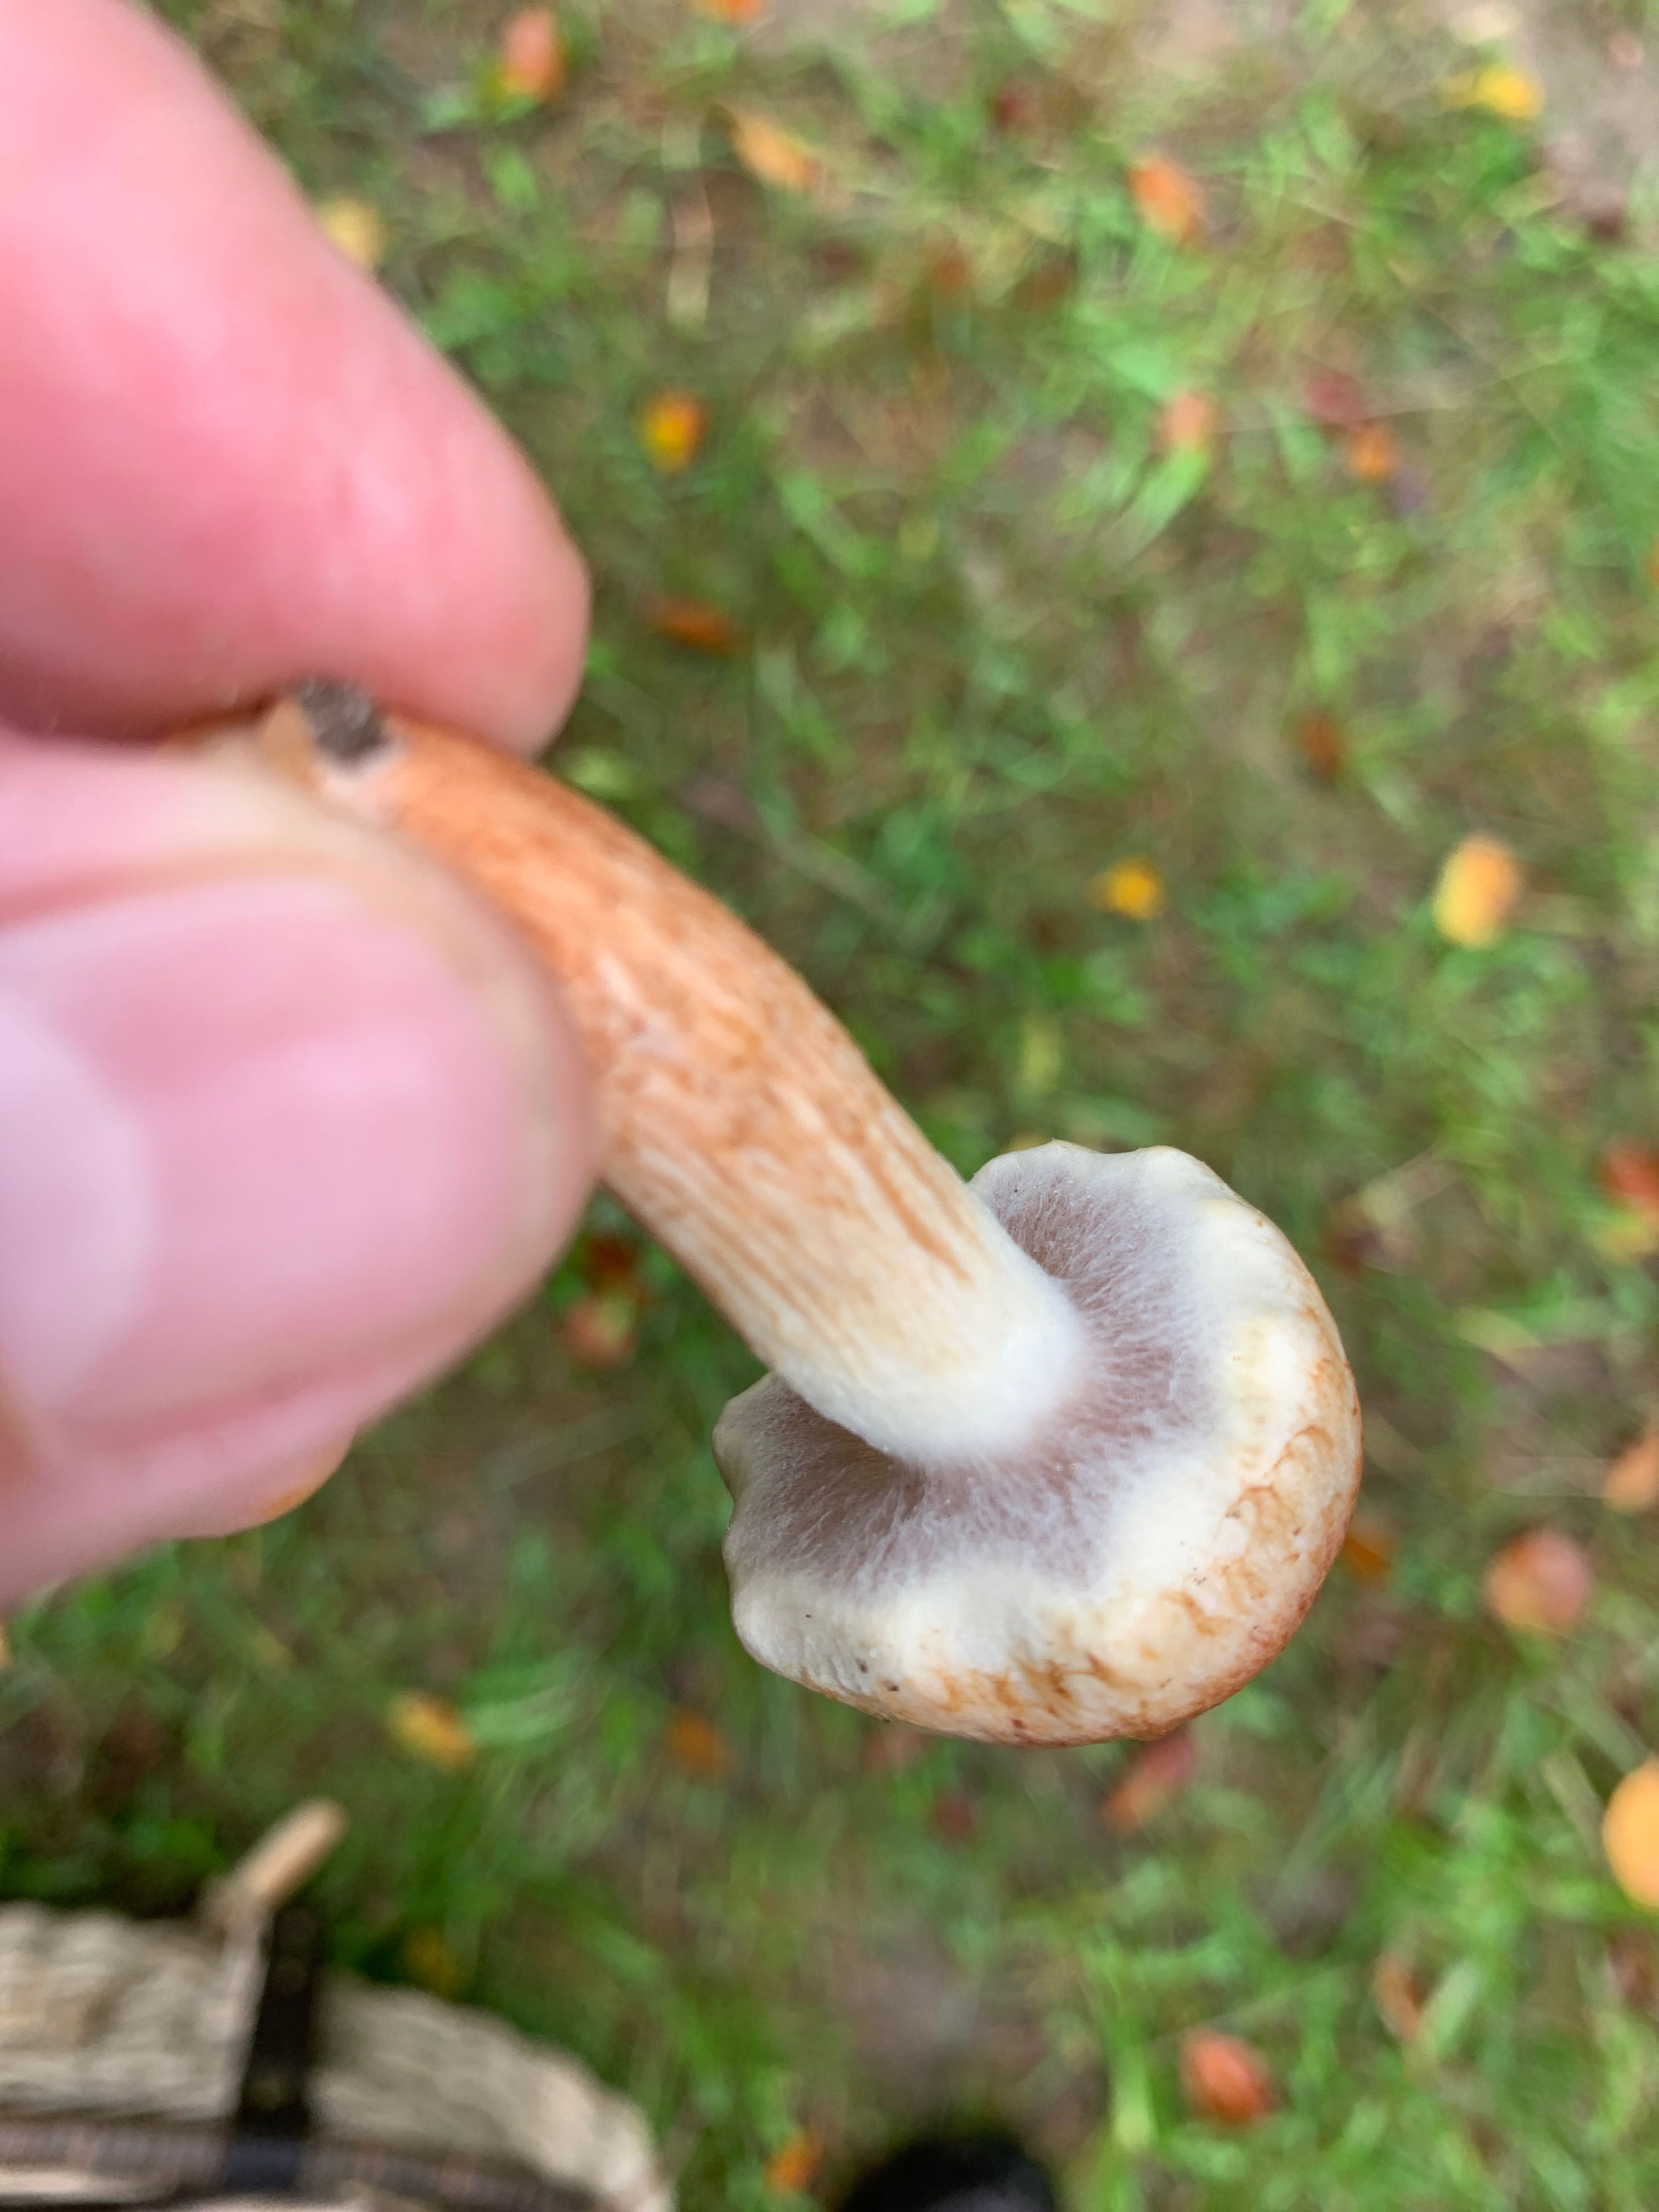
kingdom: Fungi
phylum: Basidiomycota
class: Agaricomycetes
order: Agaricales
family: Strophariaceae
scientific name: Strophariaceae
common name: bredbladfamilien
